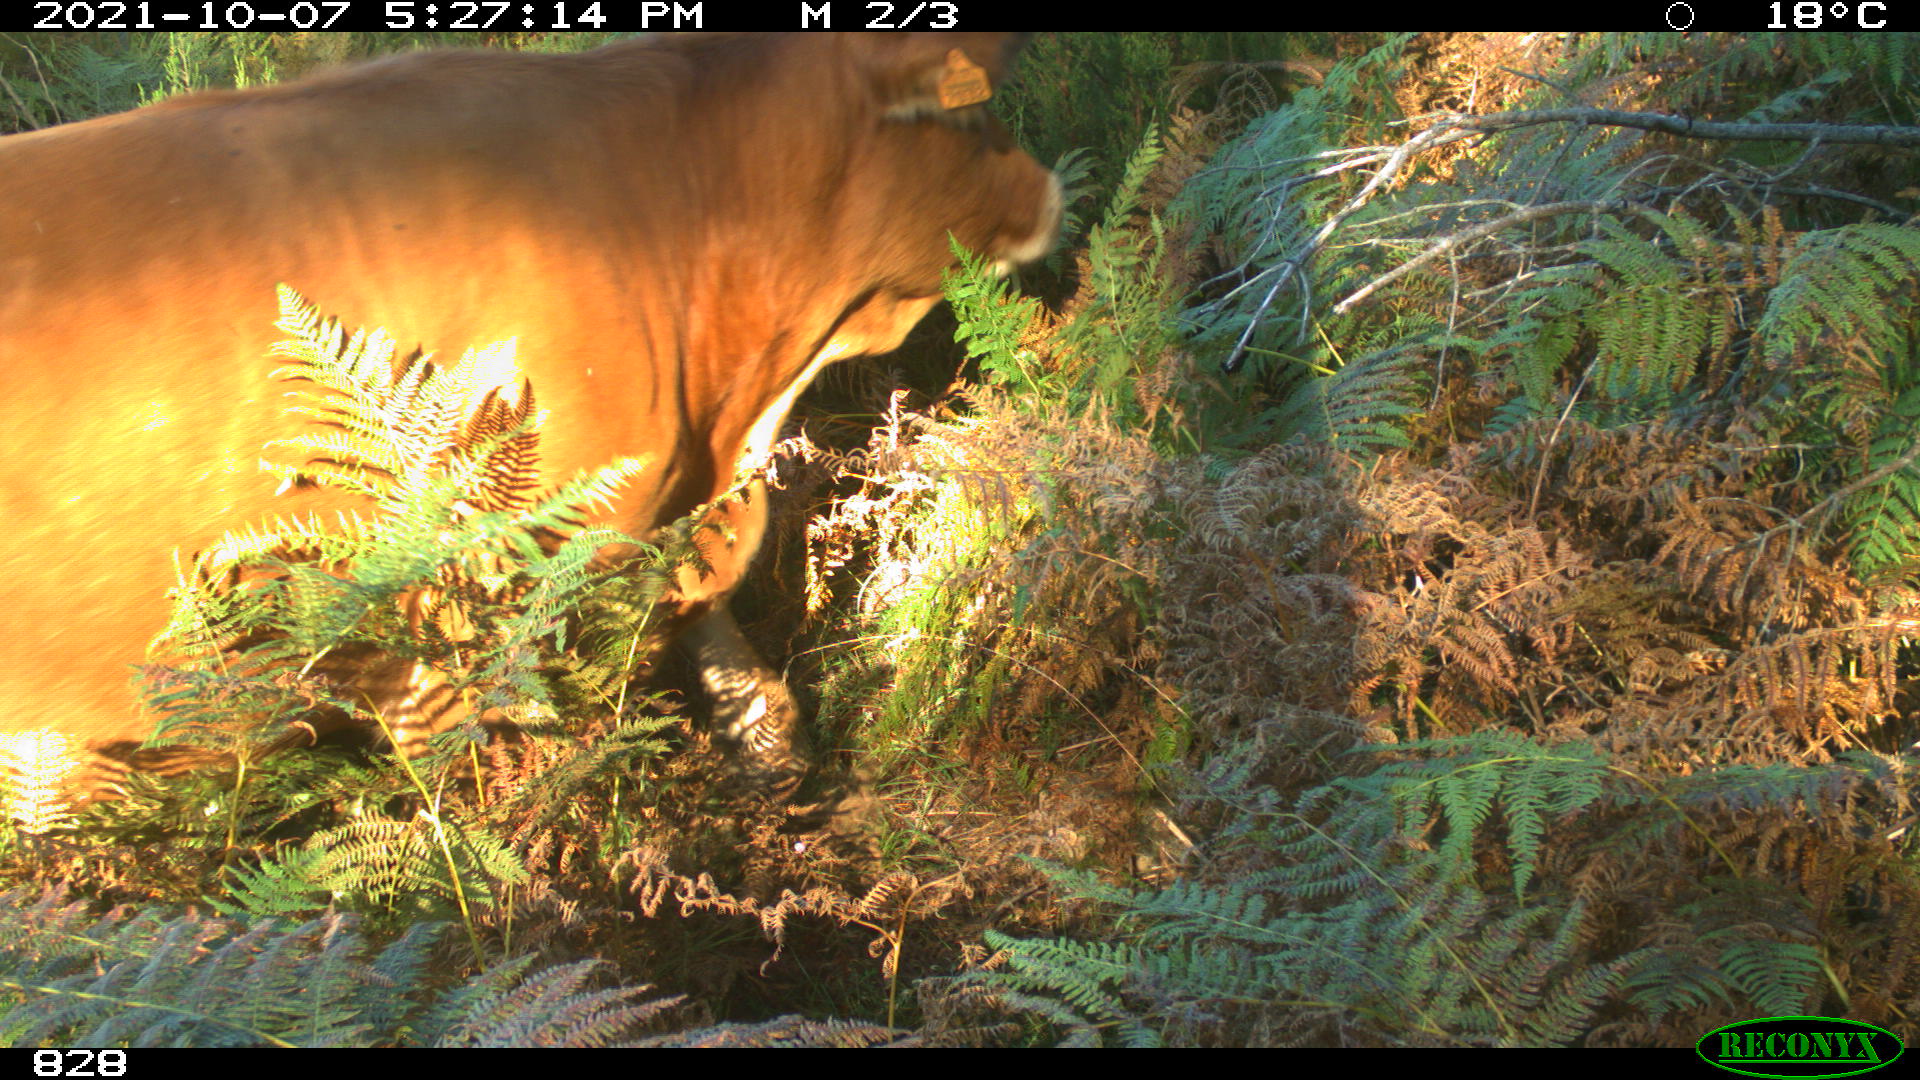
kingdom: Animalia
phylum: Chordata
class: Mammalia
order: Artiodactyla
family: Bovidae
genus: Bos
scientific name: Bos taurus
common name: Domesticated cattle
